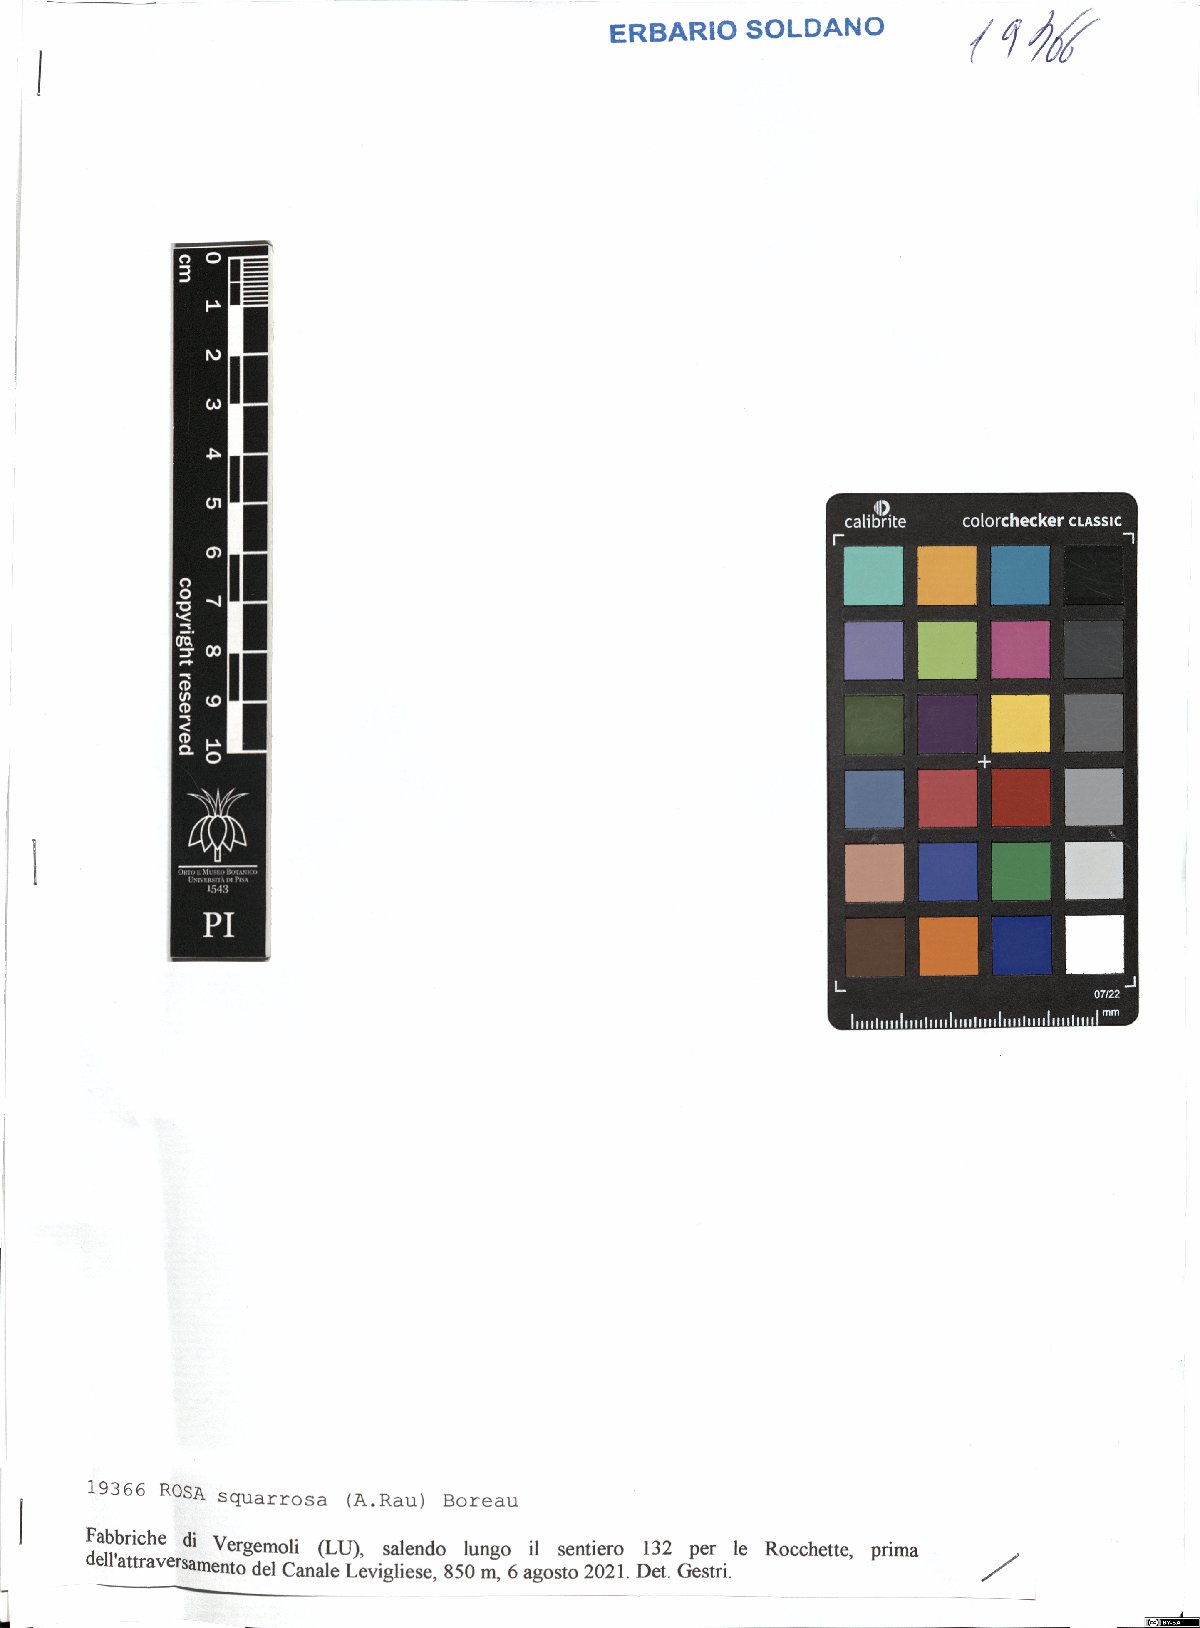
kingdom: Plantae
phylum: Tracheophyta
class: Magnoliopsida
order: Rosales
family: Rosaceae
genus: Rosa
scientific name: Rosa canina
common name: Dog rose
